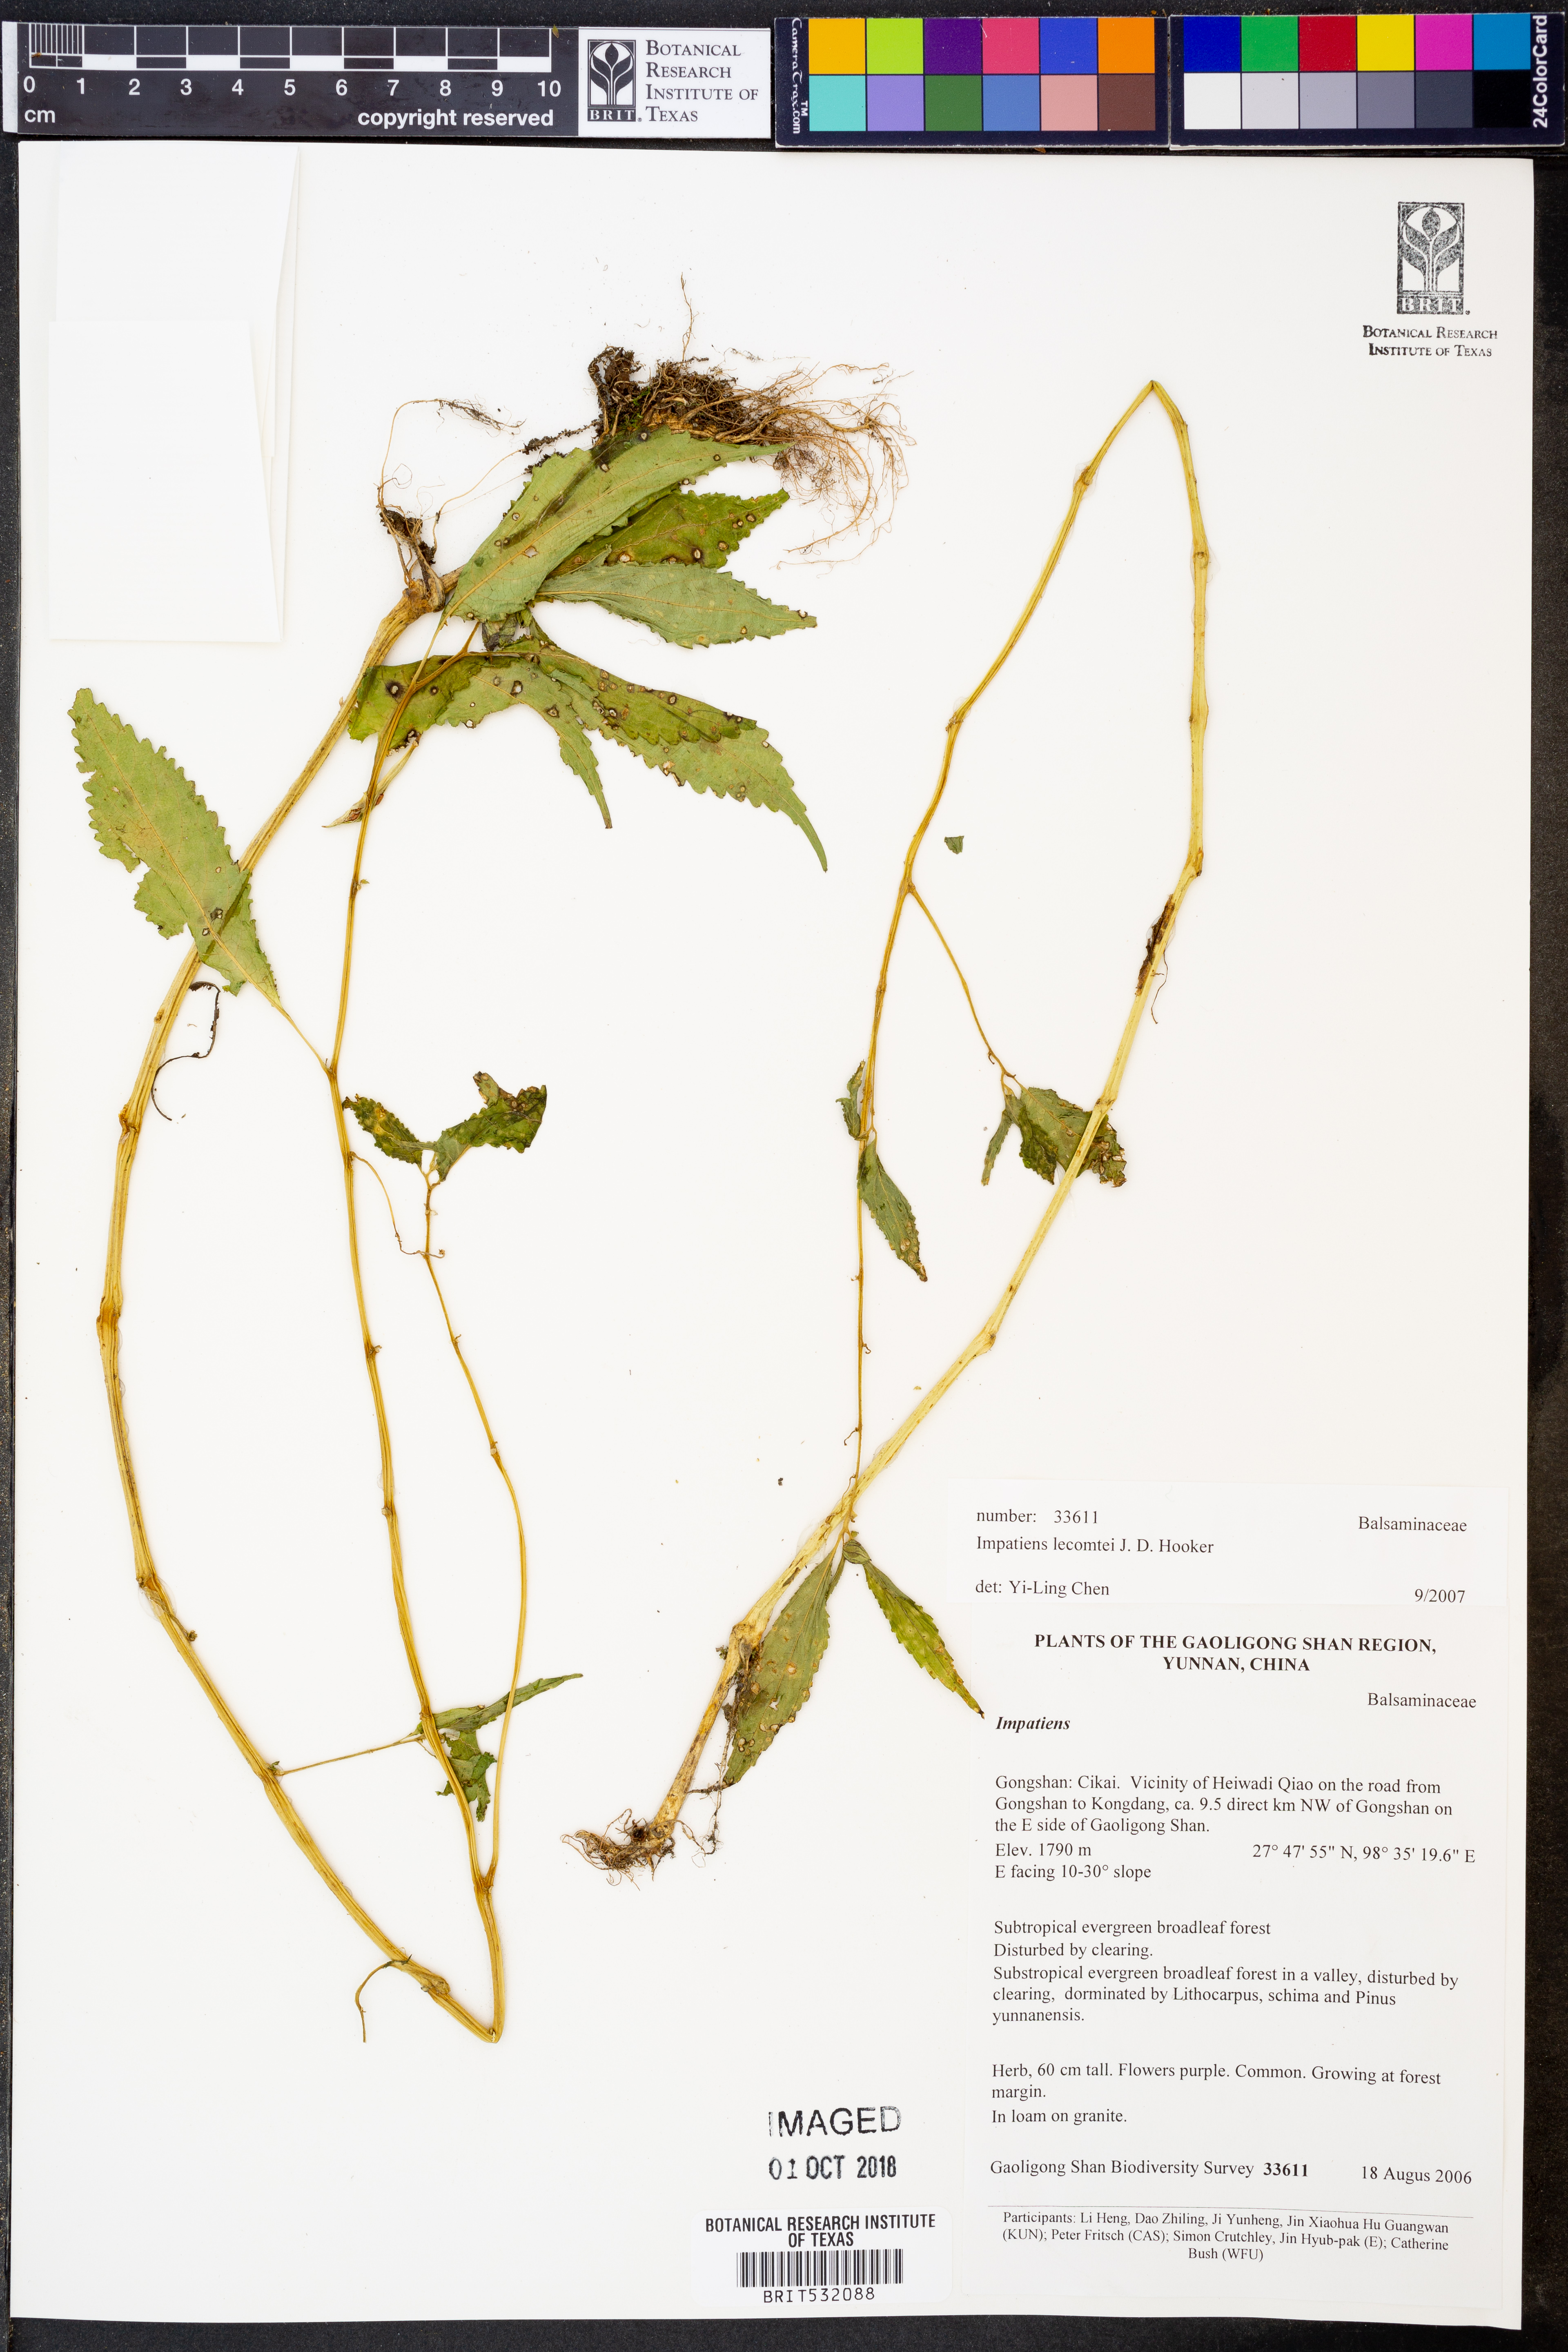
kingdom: Plantae
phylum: Tracheophyta
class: Magnoliopsida
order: Ericales
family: Balsaminaceae
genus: Impatiens
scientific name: Impatiens lecomtei
